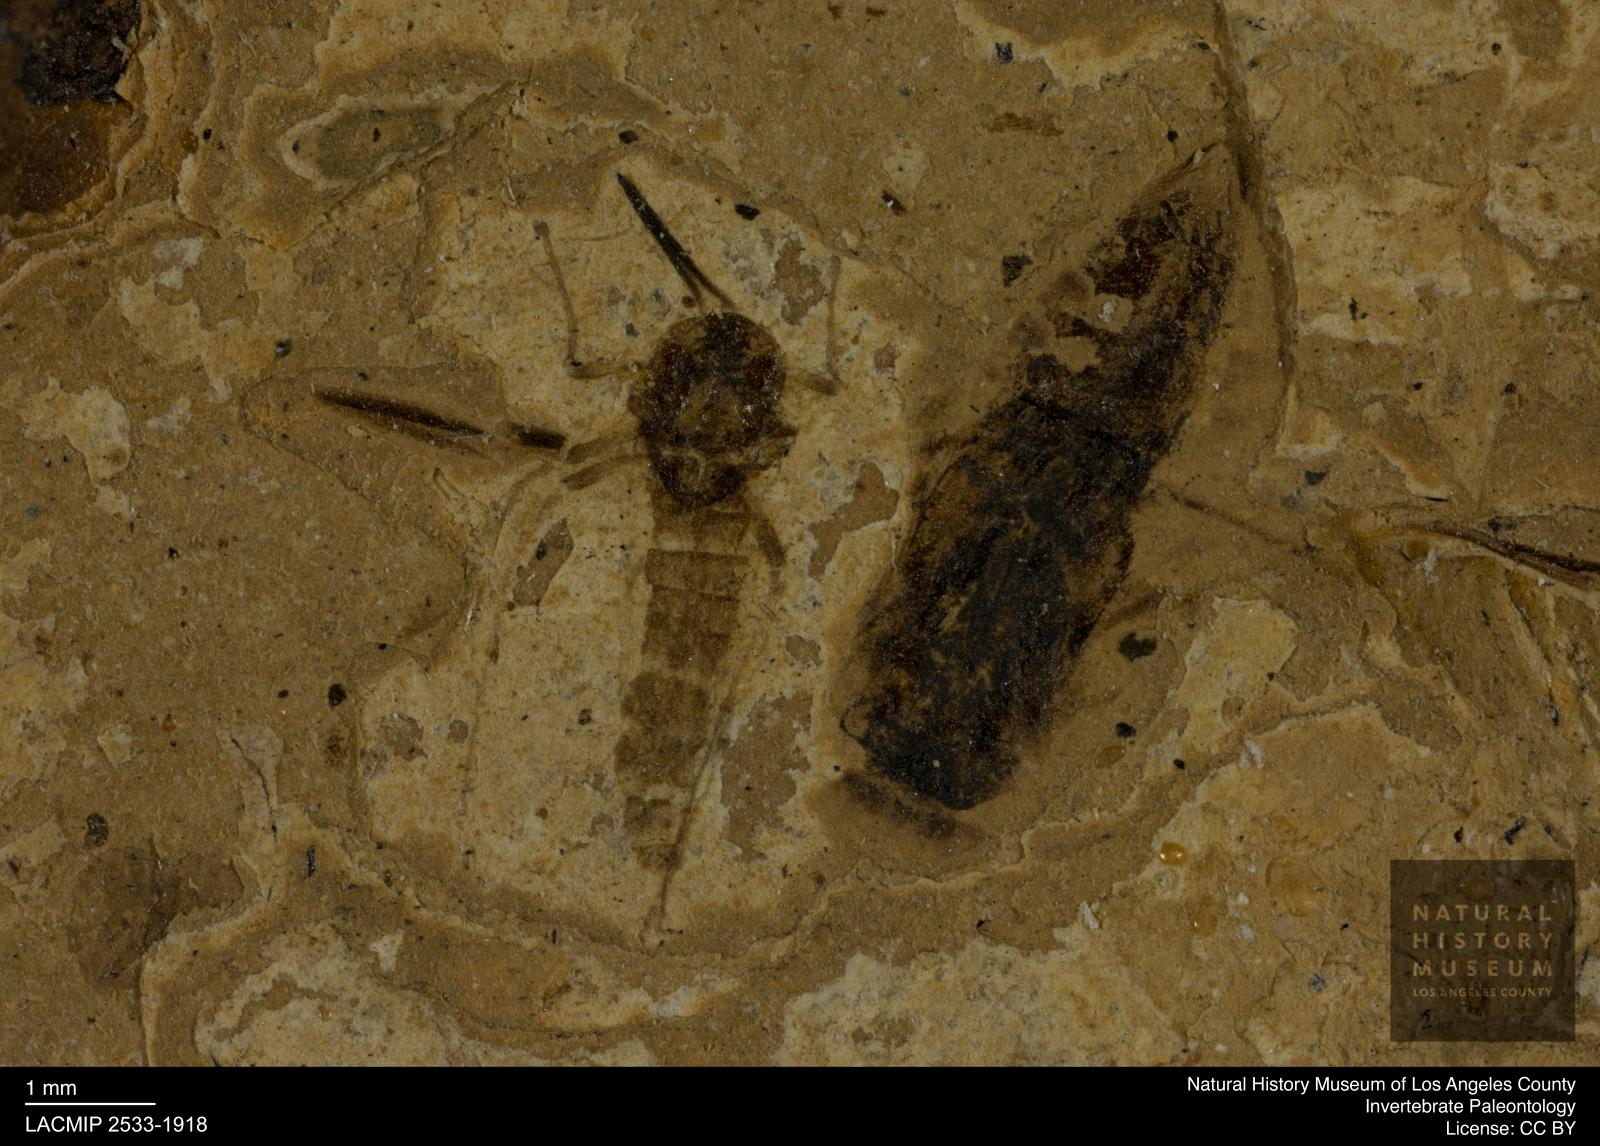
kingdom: Animalia
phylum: Arthropoda
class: Insecta
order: Hemiptera
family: Notonectidae
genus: Notonecta
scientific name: Notonecta
